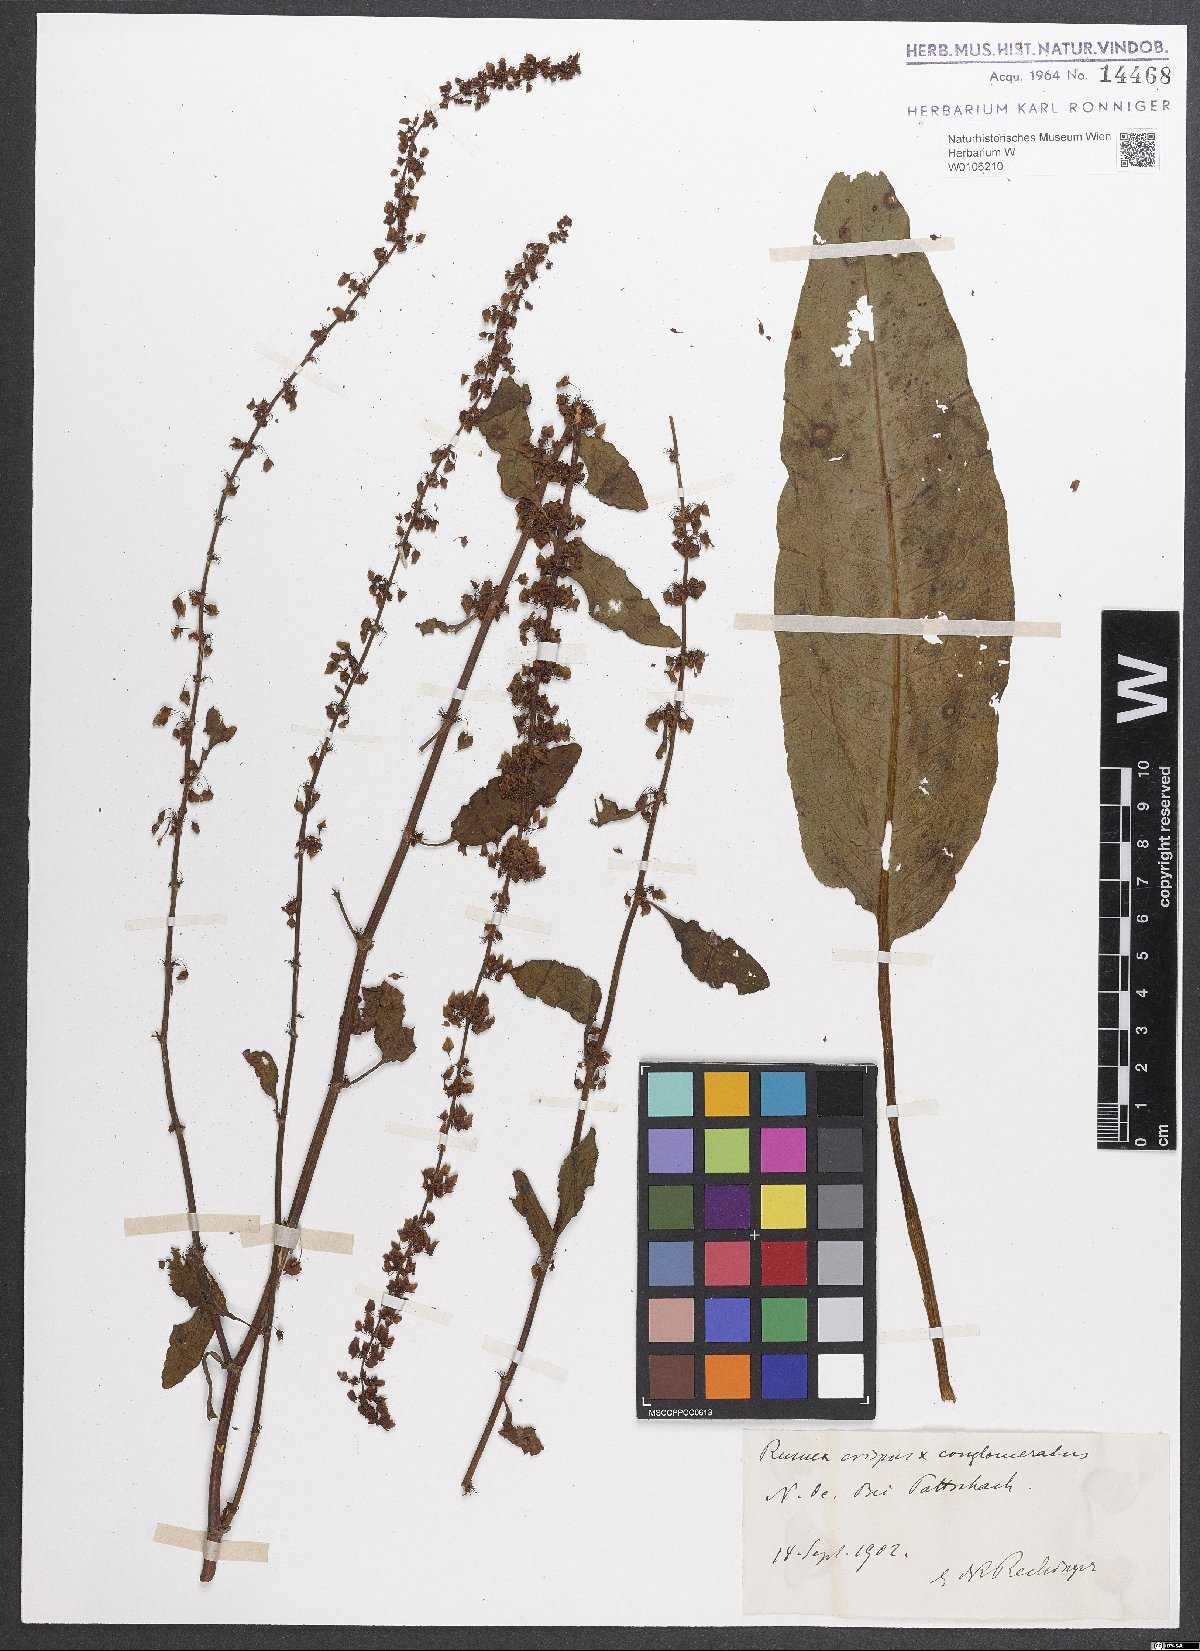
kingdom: Plantae
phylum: Tracheophyta
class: Magnoliopsida
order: Caryophyllales
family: Polygonaceae
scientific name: Polygonaceae
